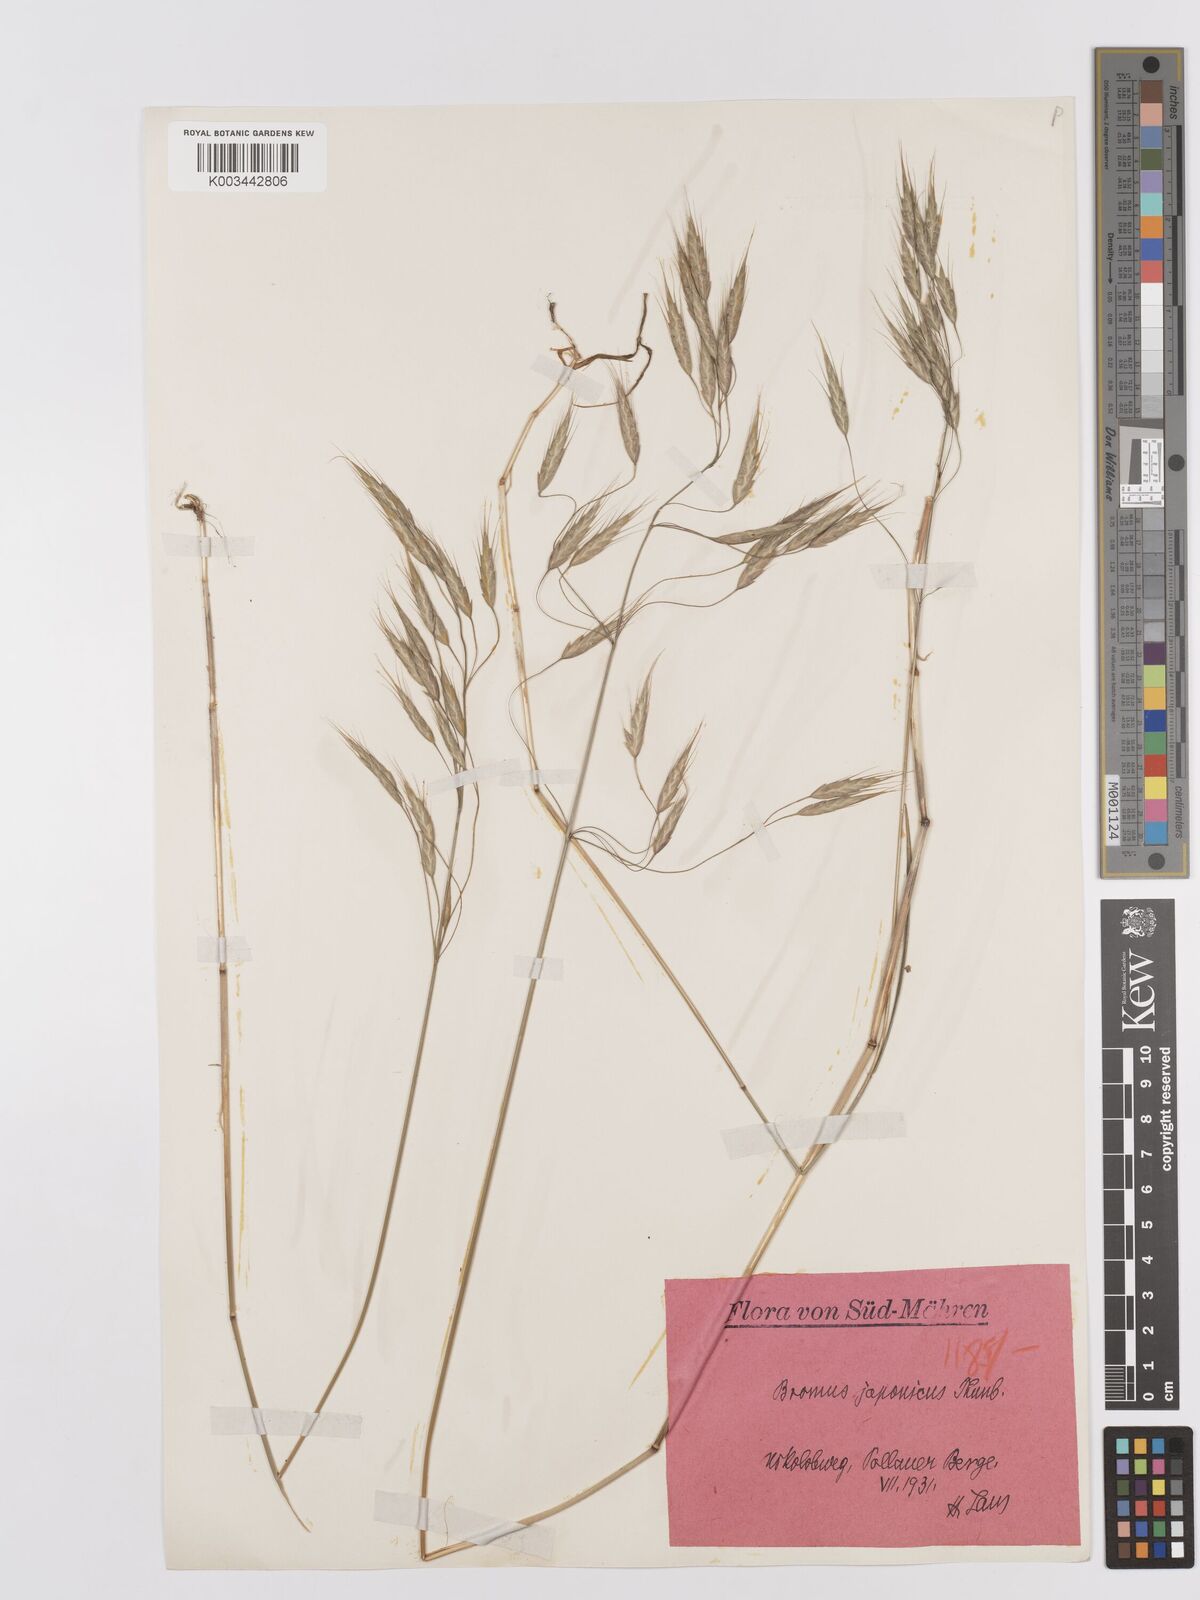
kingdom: Plantae
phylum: Tracheophyta
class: Liliopsida
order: Poales
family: Poaceae
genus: Bromus
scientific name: Bromus japonicus
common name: Japanese brome
